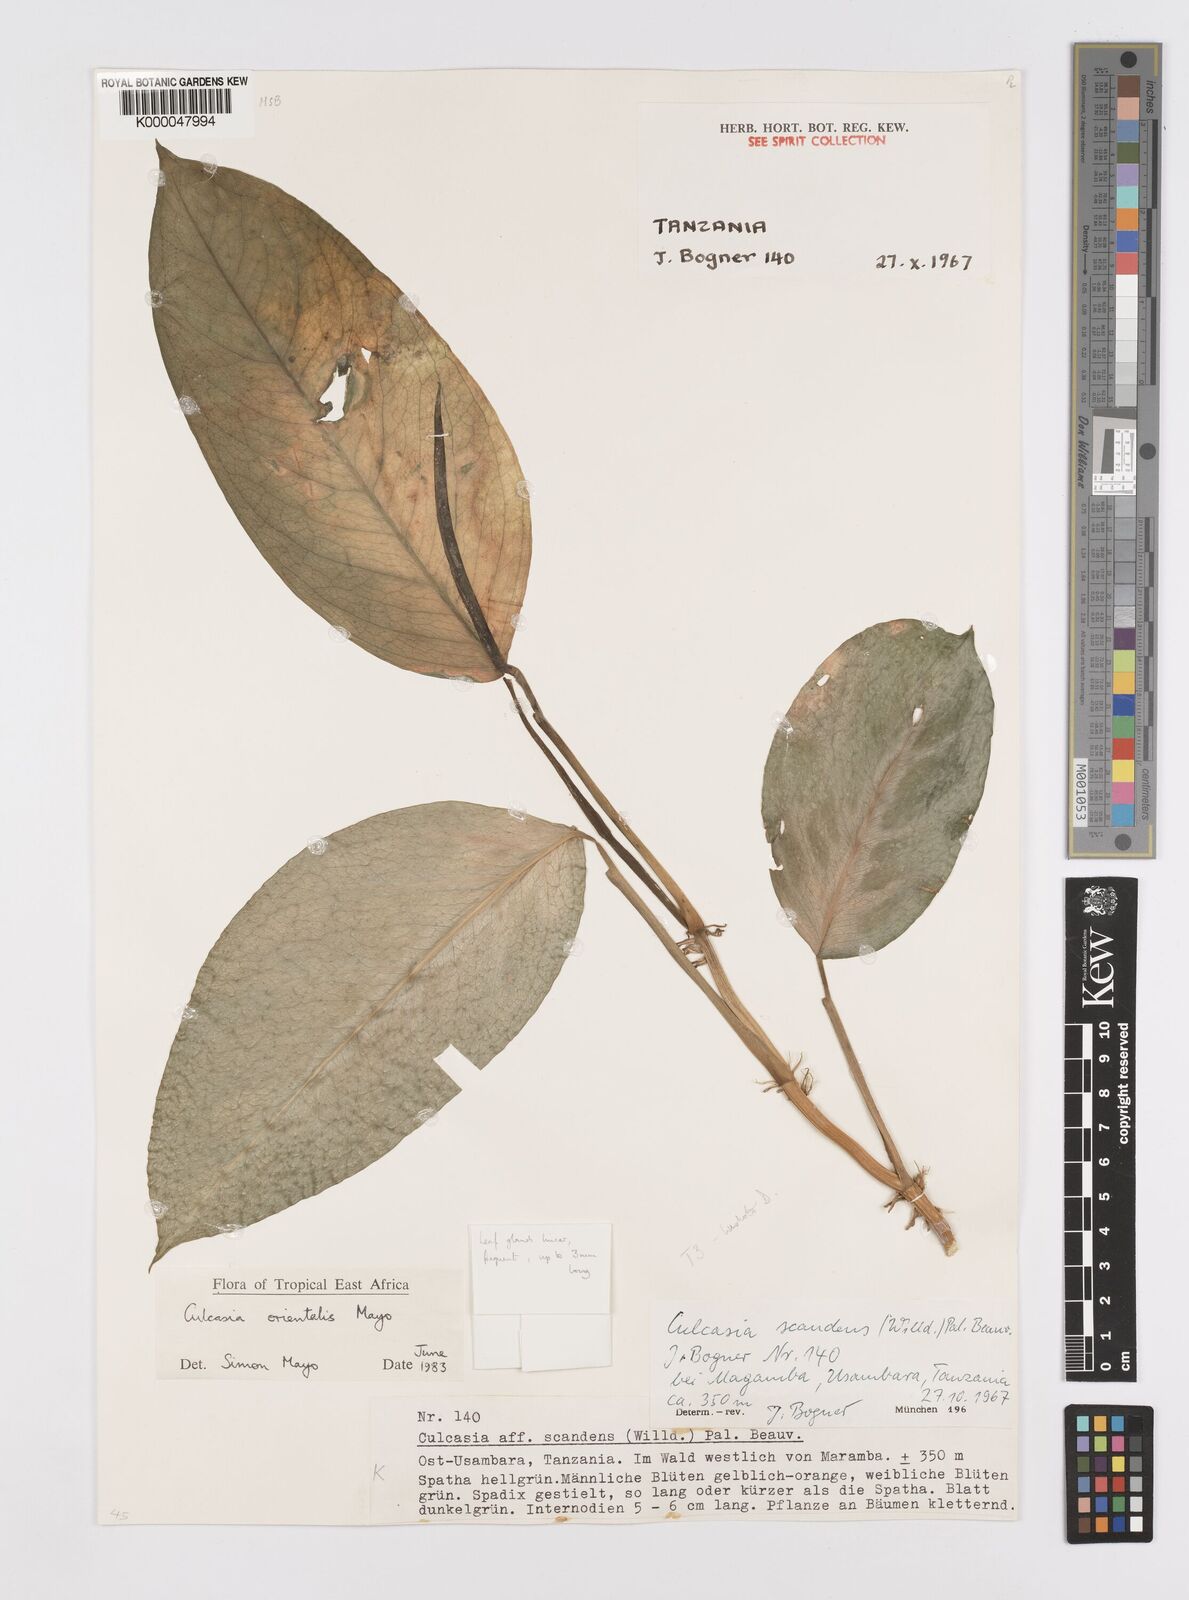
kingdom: Plantae
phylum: Tracheophyta
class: Liliopsida
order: Alismatales
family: Araceae
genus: Culcasia
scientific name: Culcasia orientalis
